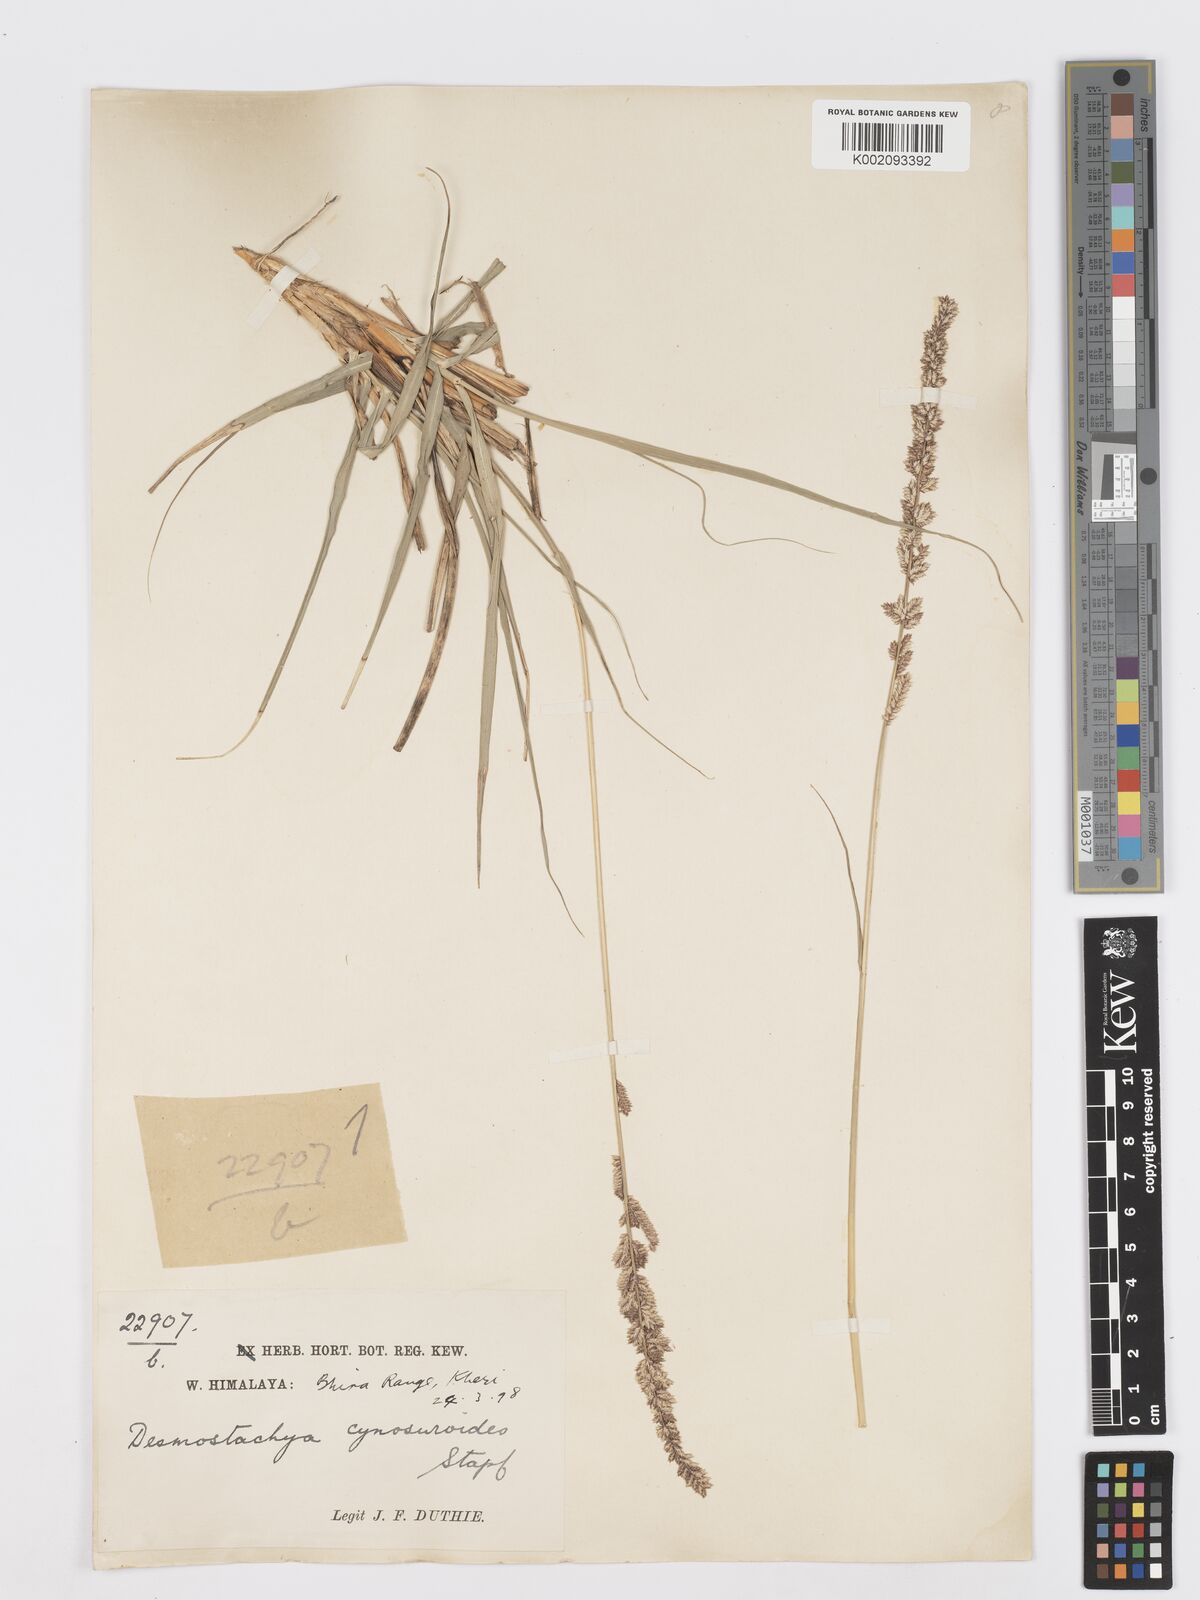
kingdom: Plantae
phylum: Tracheophyta
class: Liliopsida
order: Poales
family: Poaceae
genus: Desmostachya
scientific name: Desmostachya bipinnata
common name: Crowfoot grass
